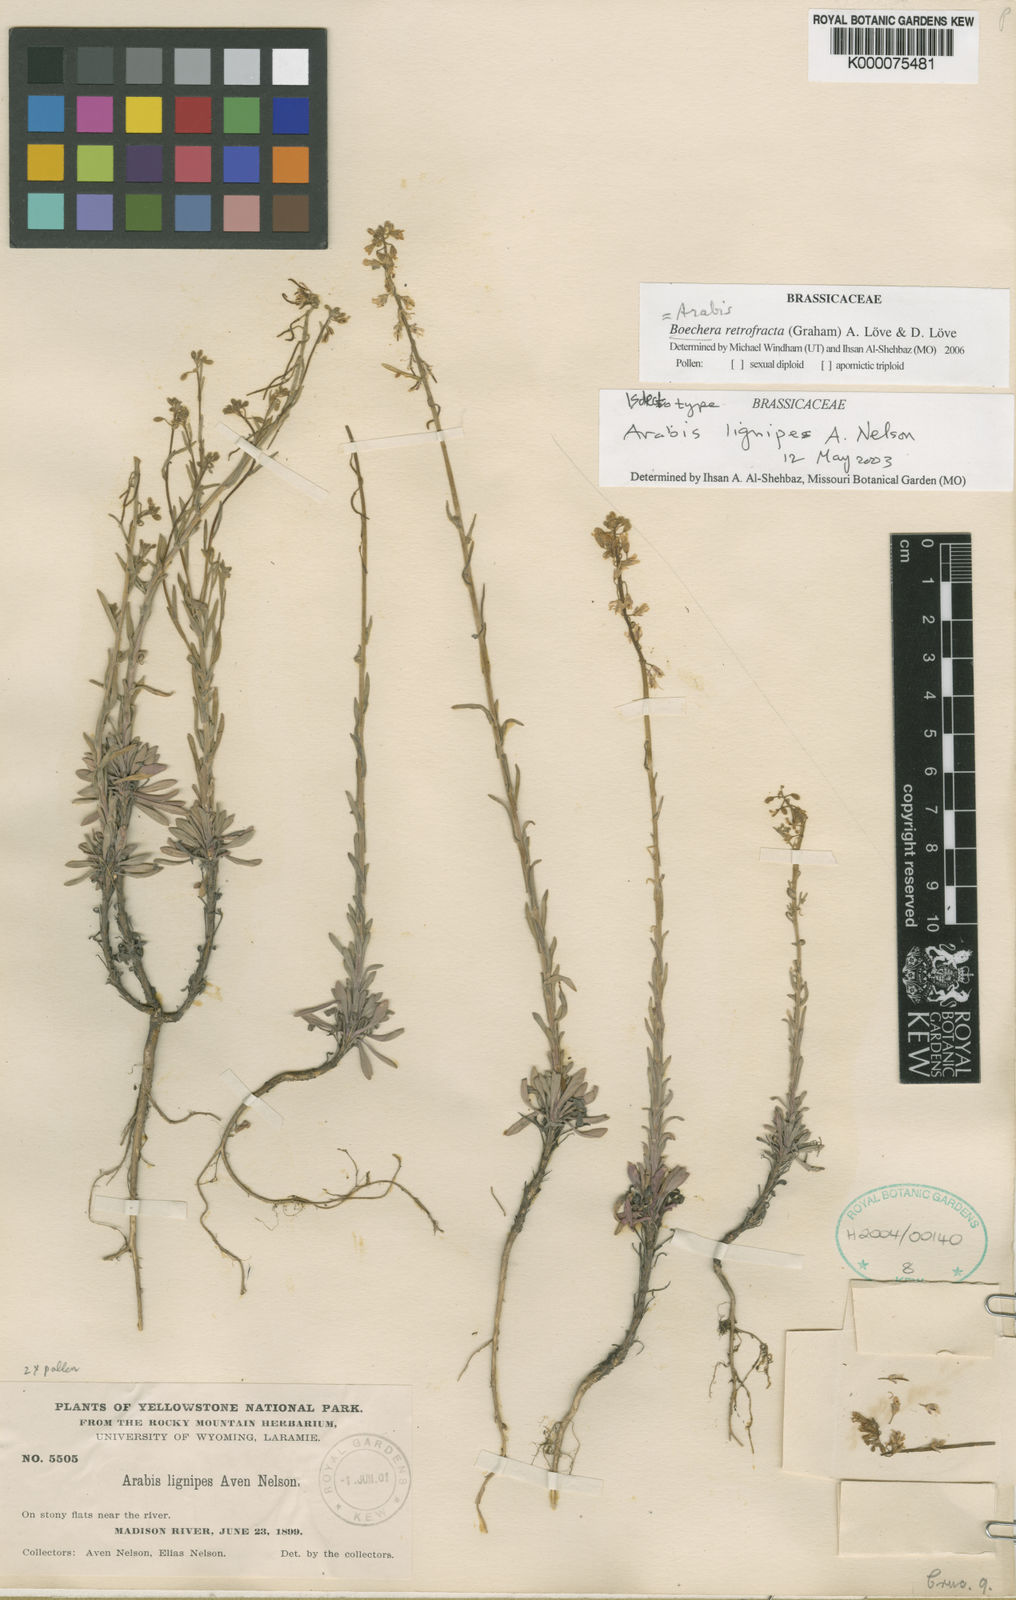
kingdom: Plantae
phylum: Tracheophyta
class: Magnoliopsida
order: Brassicales
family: Brassicaceae
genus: Boechera
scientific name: Boechera
